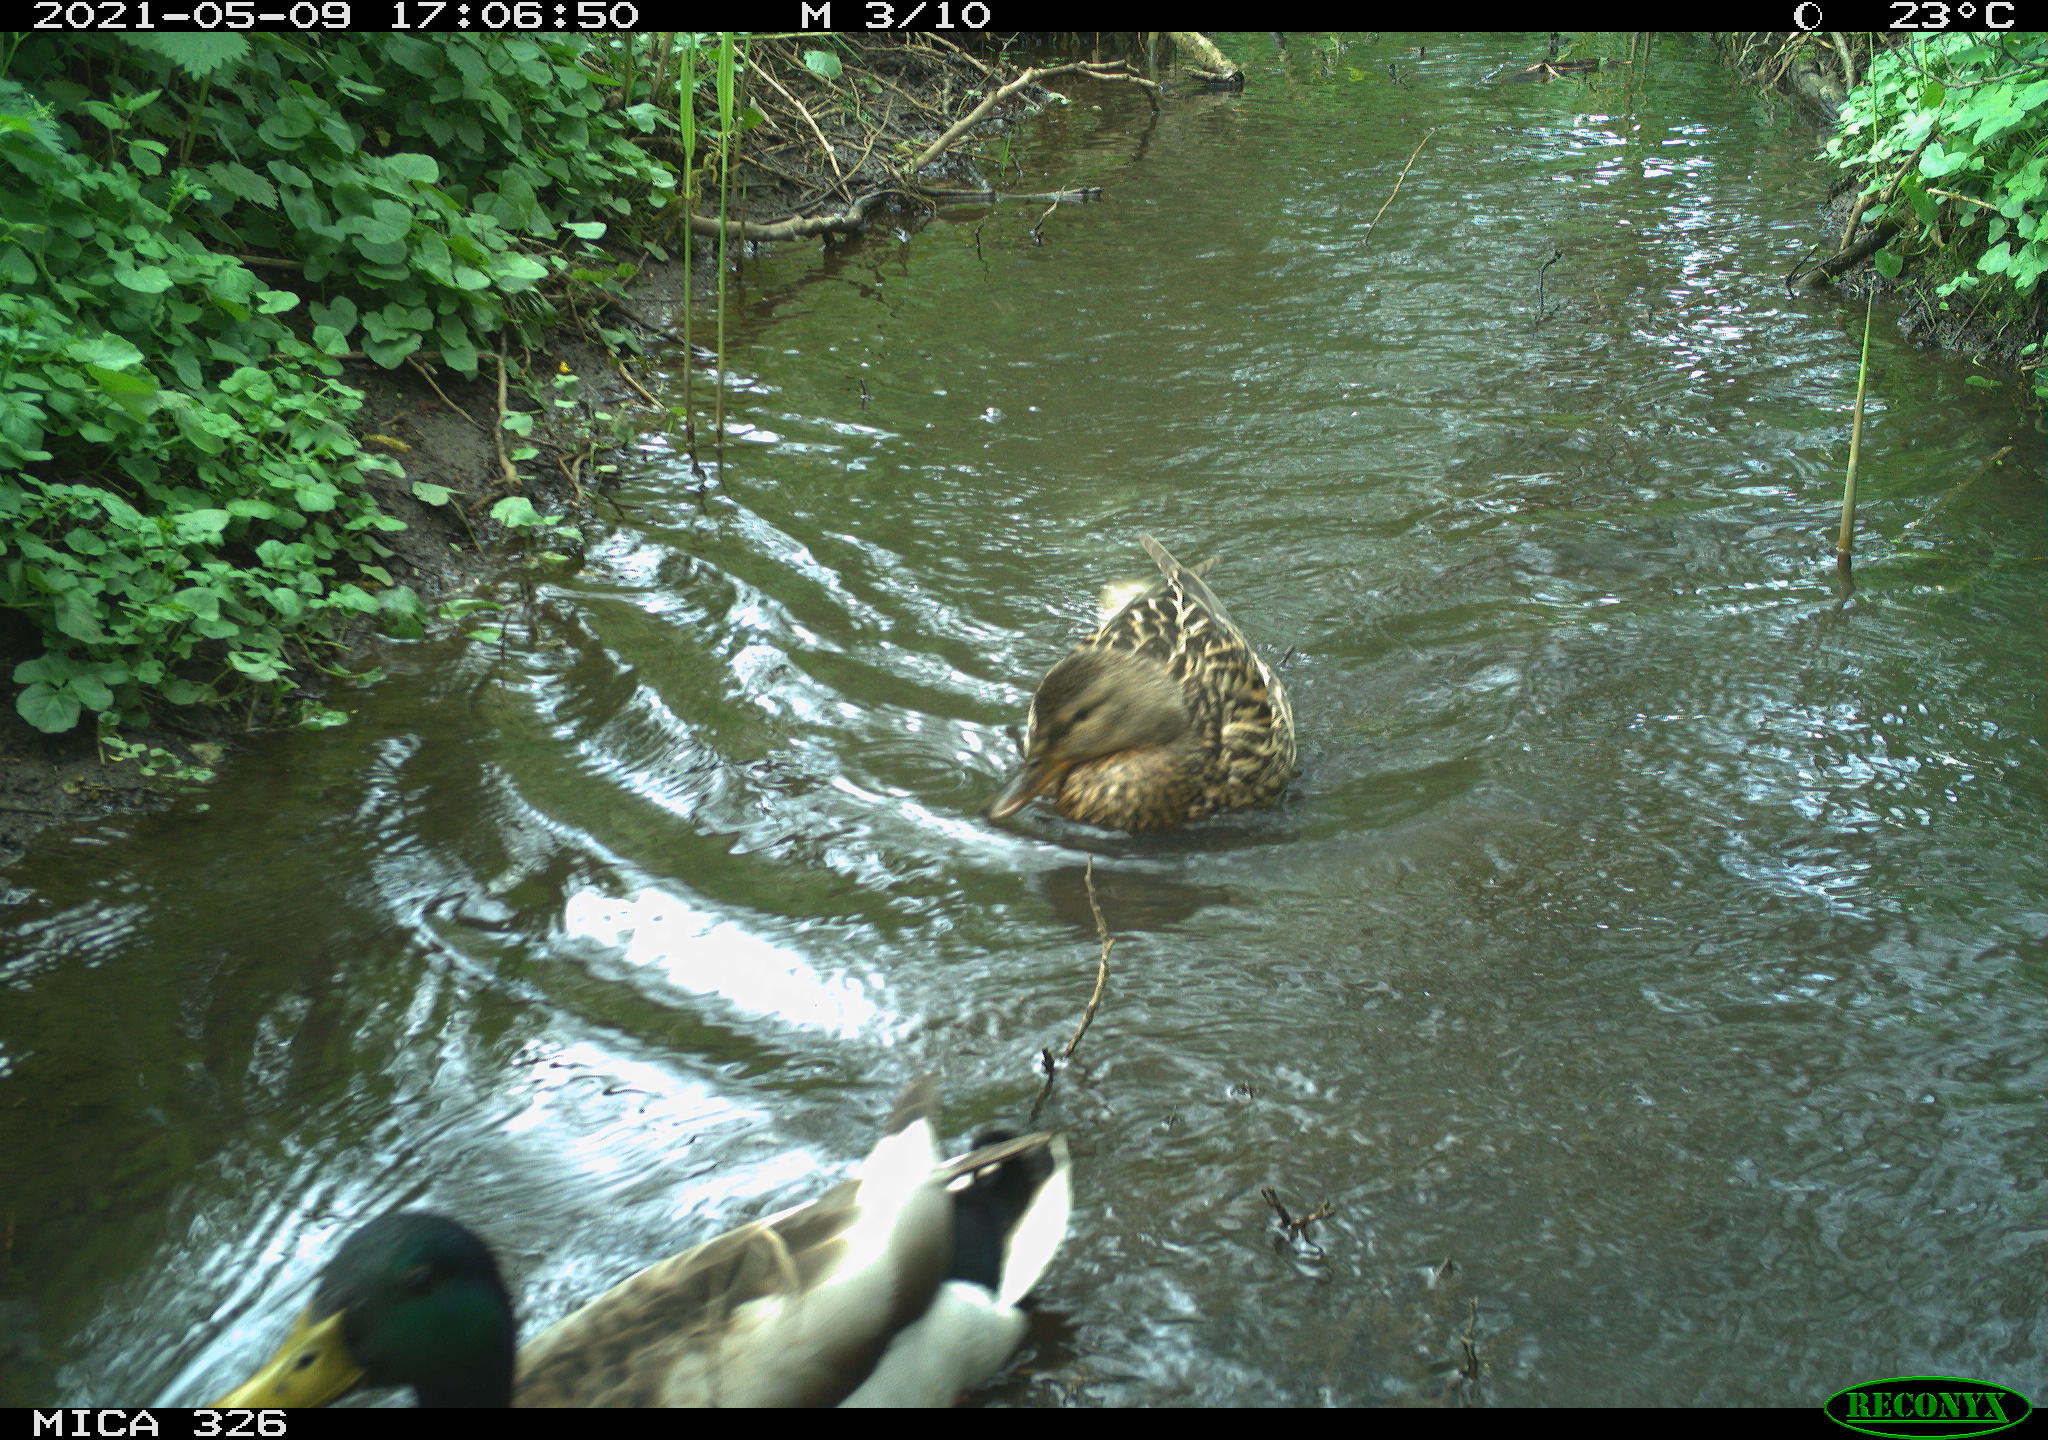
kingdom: Animalia
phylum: Chordata
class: Aves
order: Anseriformes
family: Anatidae
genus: Anas
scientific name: Anas platyrhynchos
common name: Mallard
